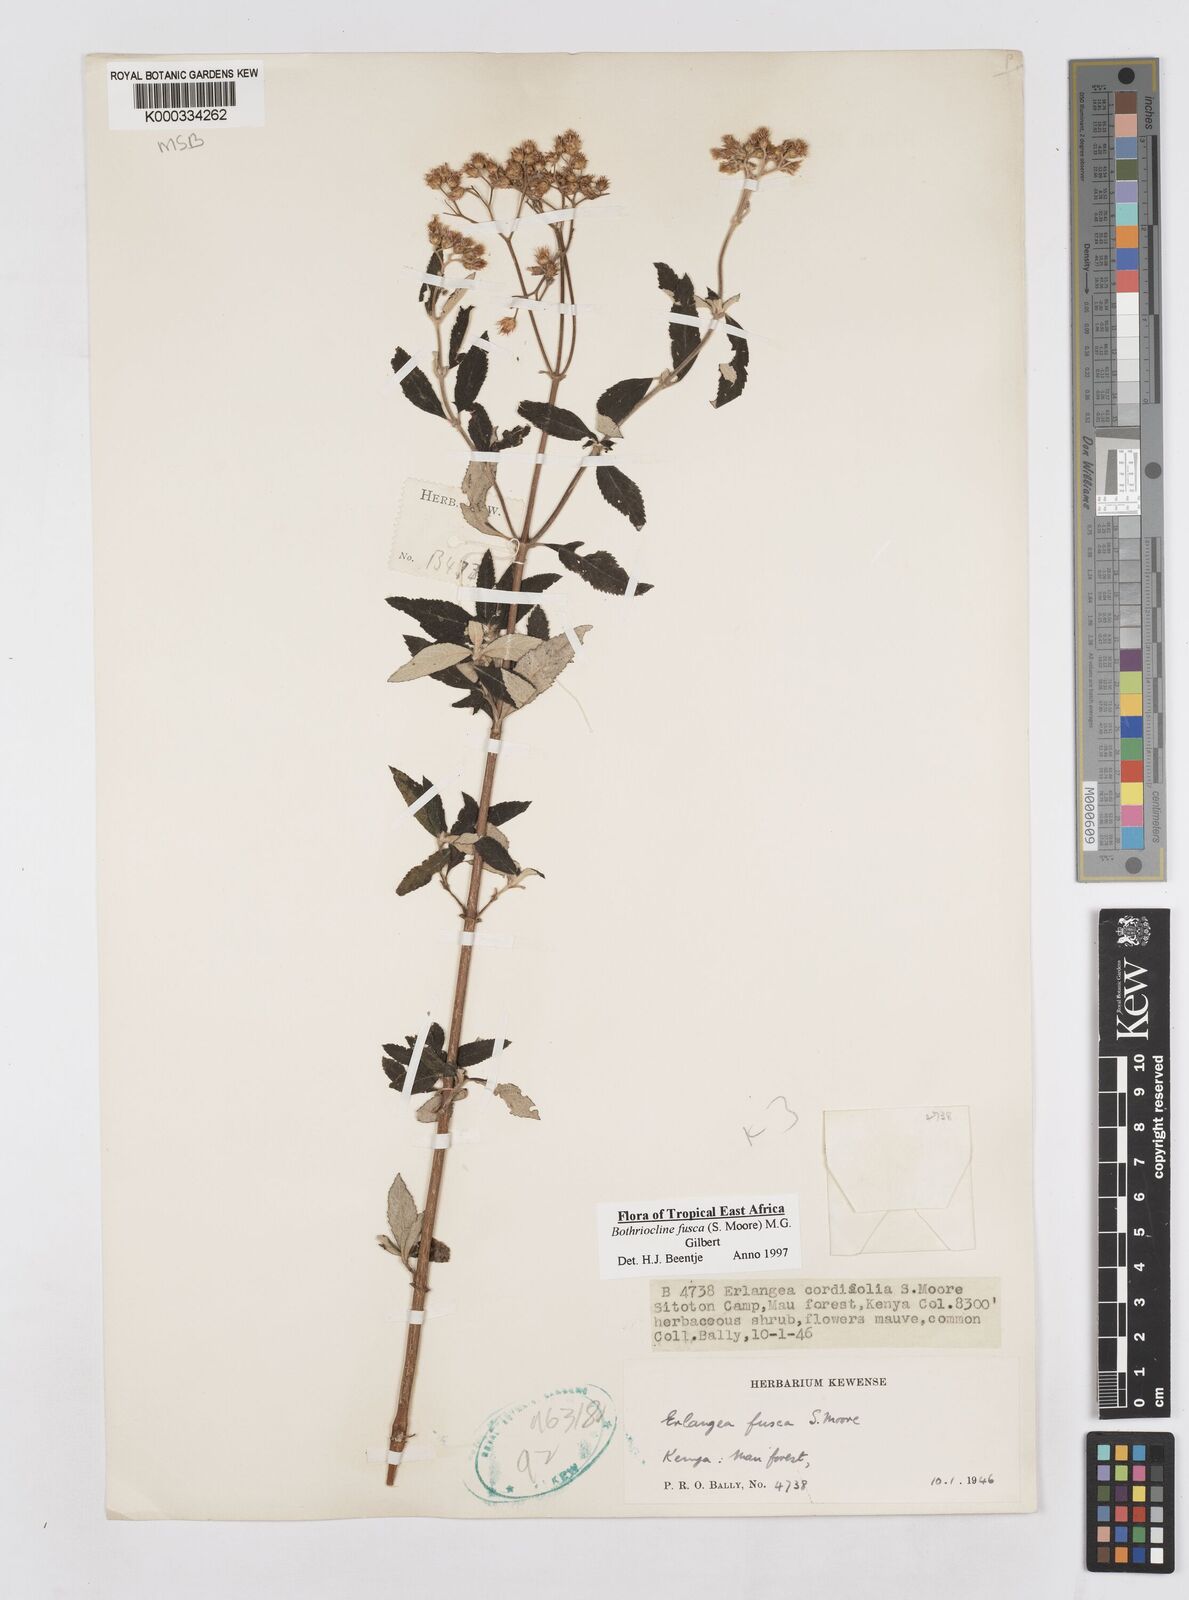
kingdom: Plantae
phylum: Tracheophyta
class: Magnoliopsida
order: Asterales
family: Asteraceae
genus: Bothriocline
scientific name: Bothriocline fusca
